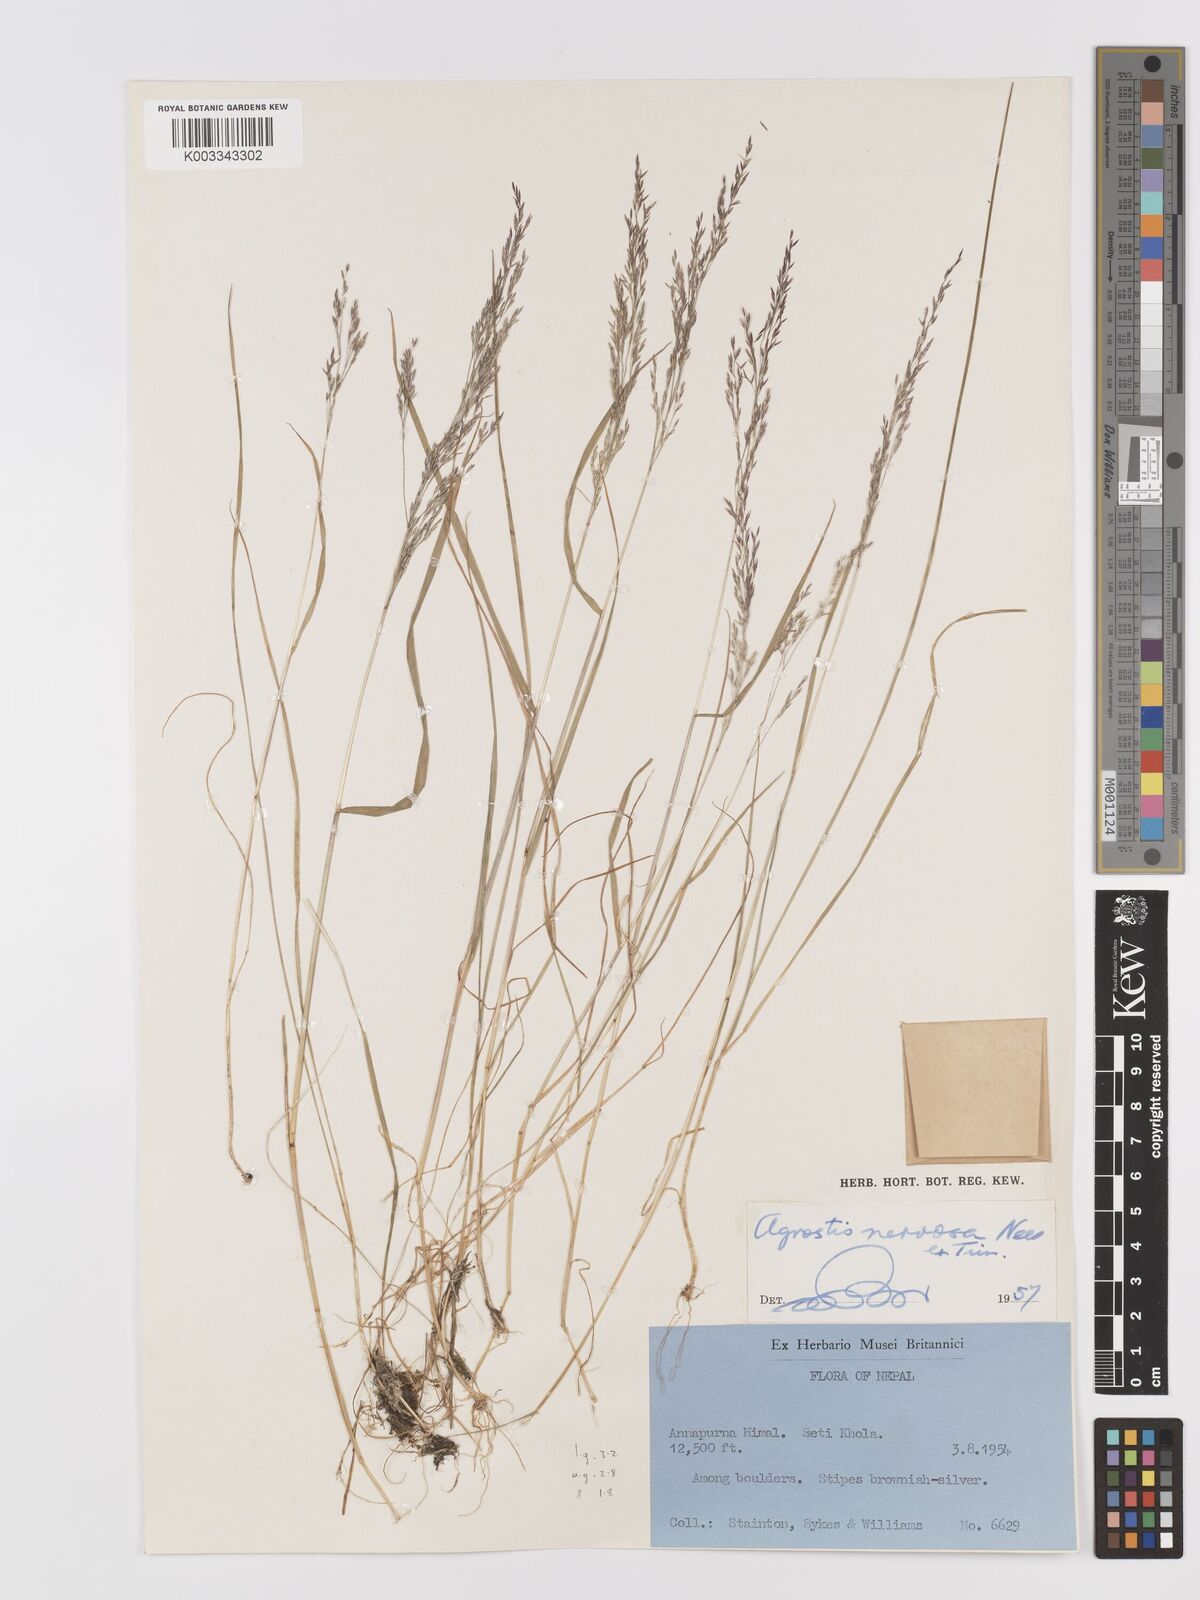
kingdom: Plantae
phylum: Tracheophyta
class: Liliopsida
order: Poales
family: Poaceae
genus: Agrostis
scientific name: Agrostis nervosa
